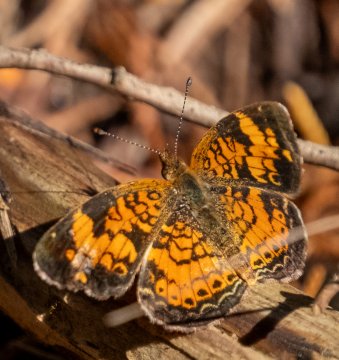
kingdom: Animalia
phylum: Arthropoda
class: Insecta
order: Lepidoptera
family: Nymphalidae
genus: Phyciodes
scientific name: Phyciodes tharos
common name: Pearl Crescent
